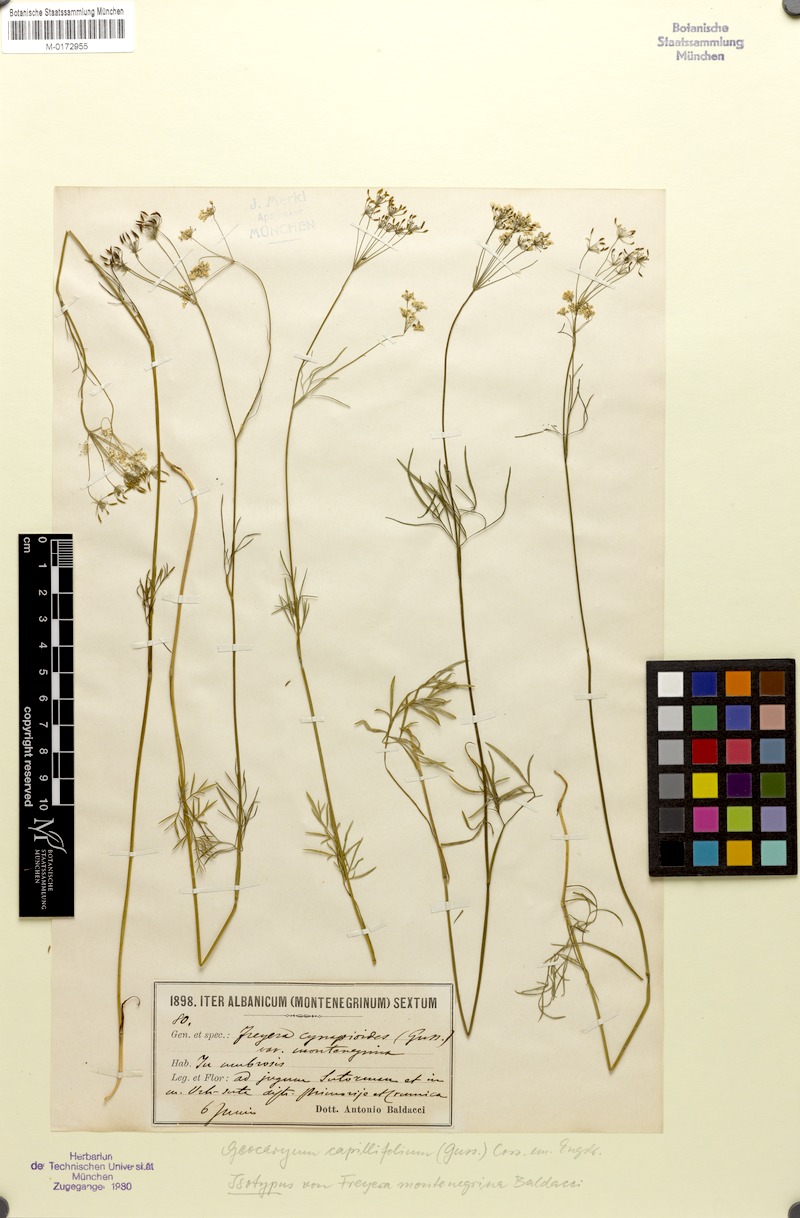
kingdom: Plantae
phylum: Tracheophyta
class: Magnoliopsida
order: Apiales
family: Apiaceae
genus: Geocaryum
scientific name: Geocaryum capillifolium
